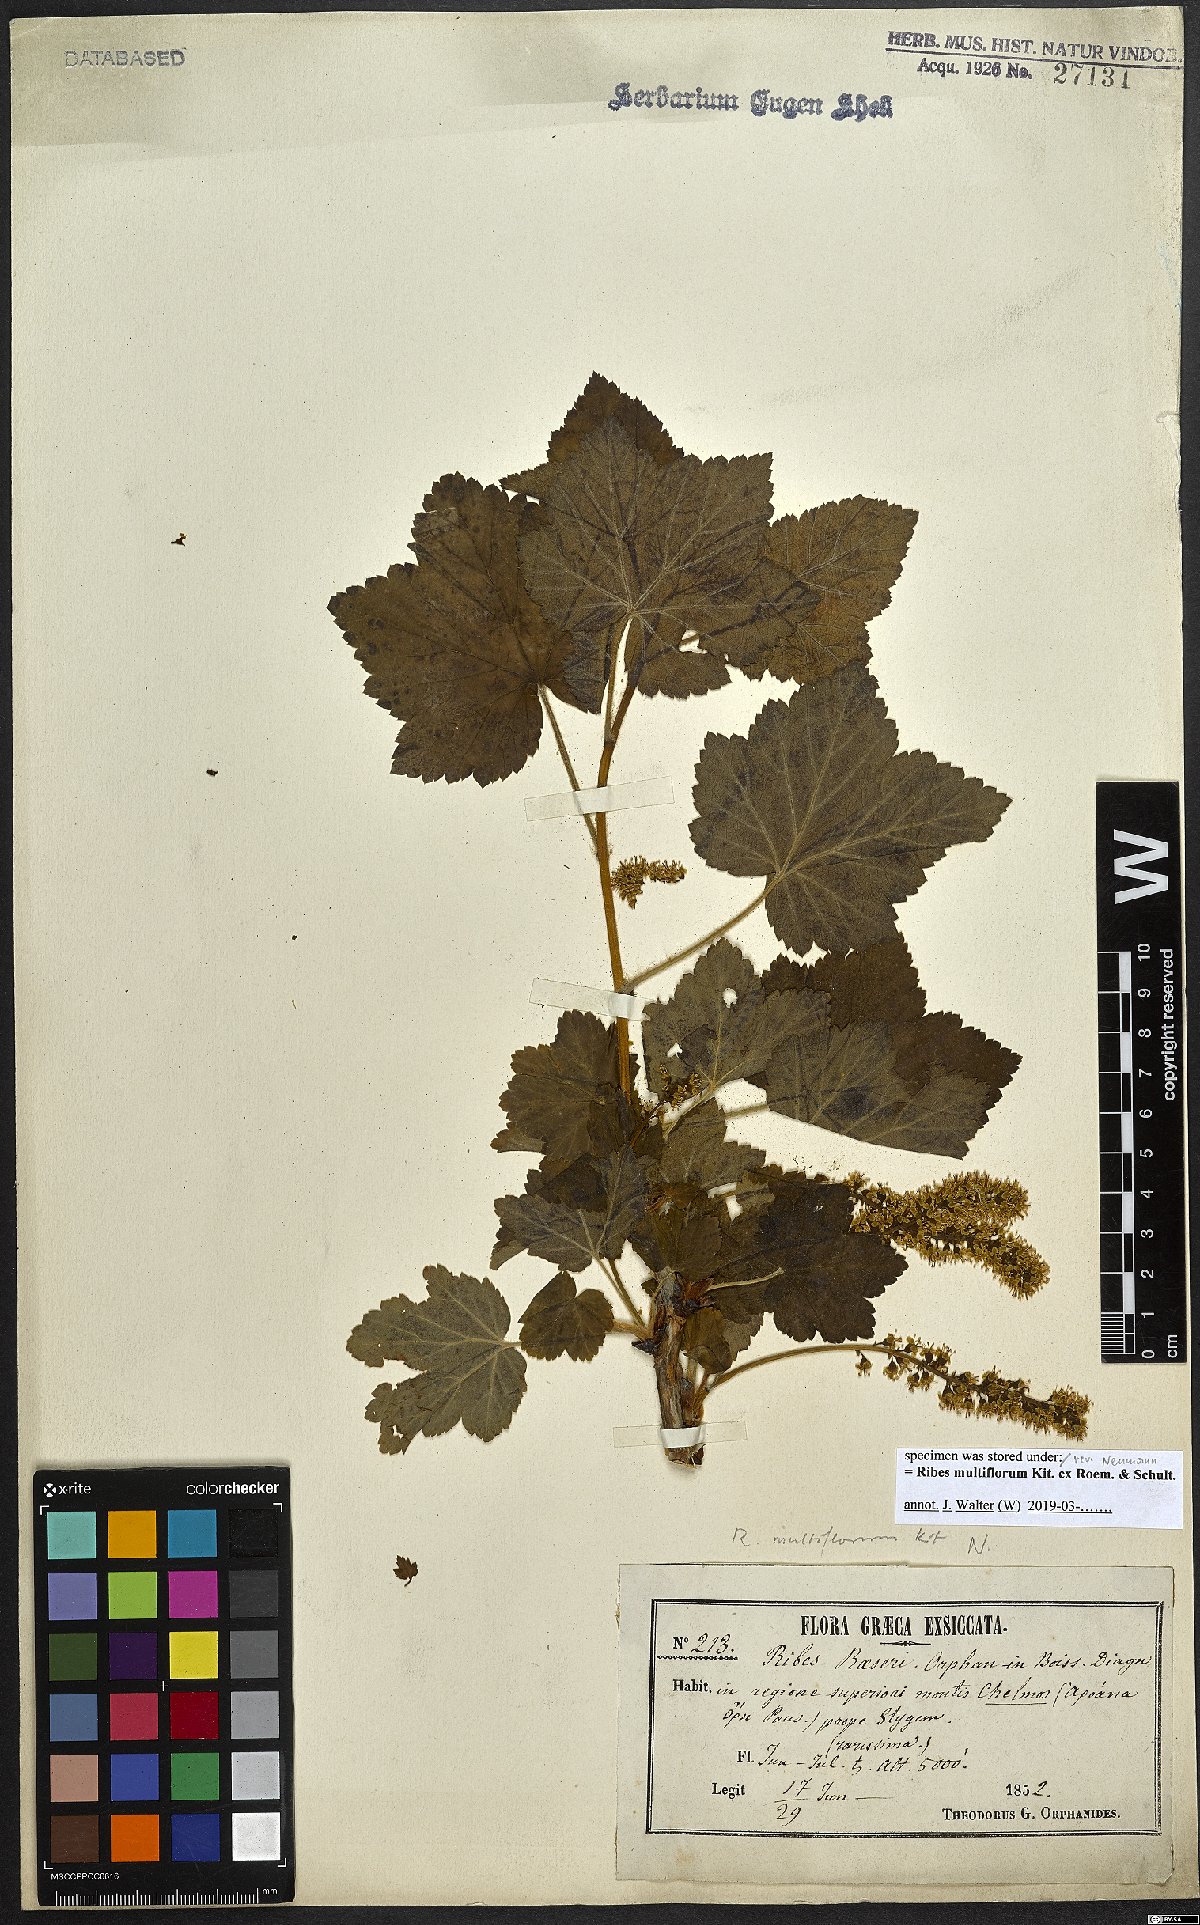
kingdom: Plantae
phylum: Tracheophyta
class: Magnoliopsida
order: Saxifragales
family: Grossulariaceae
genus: Ribes
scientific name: Ribes multiflorum
